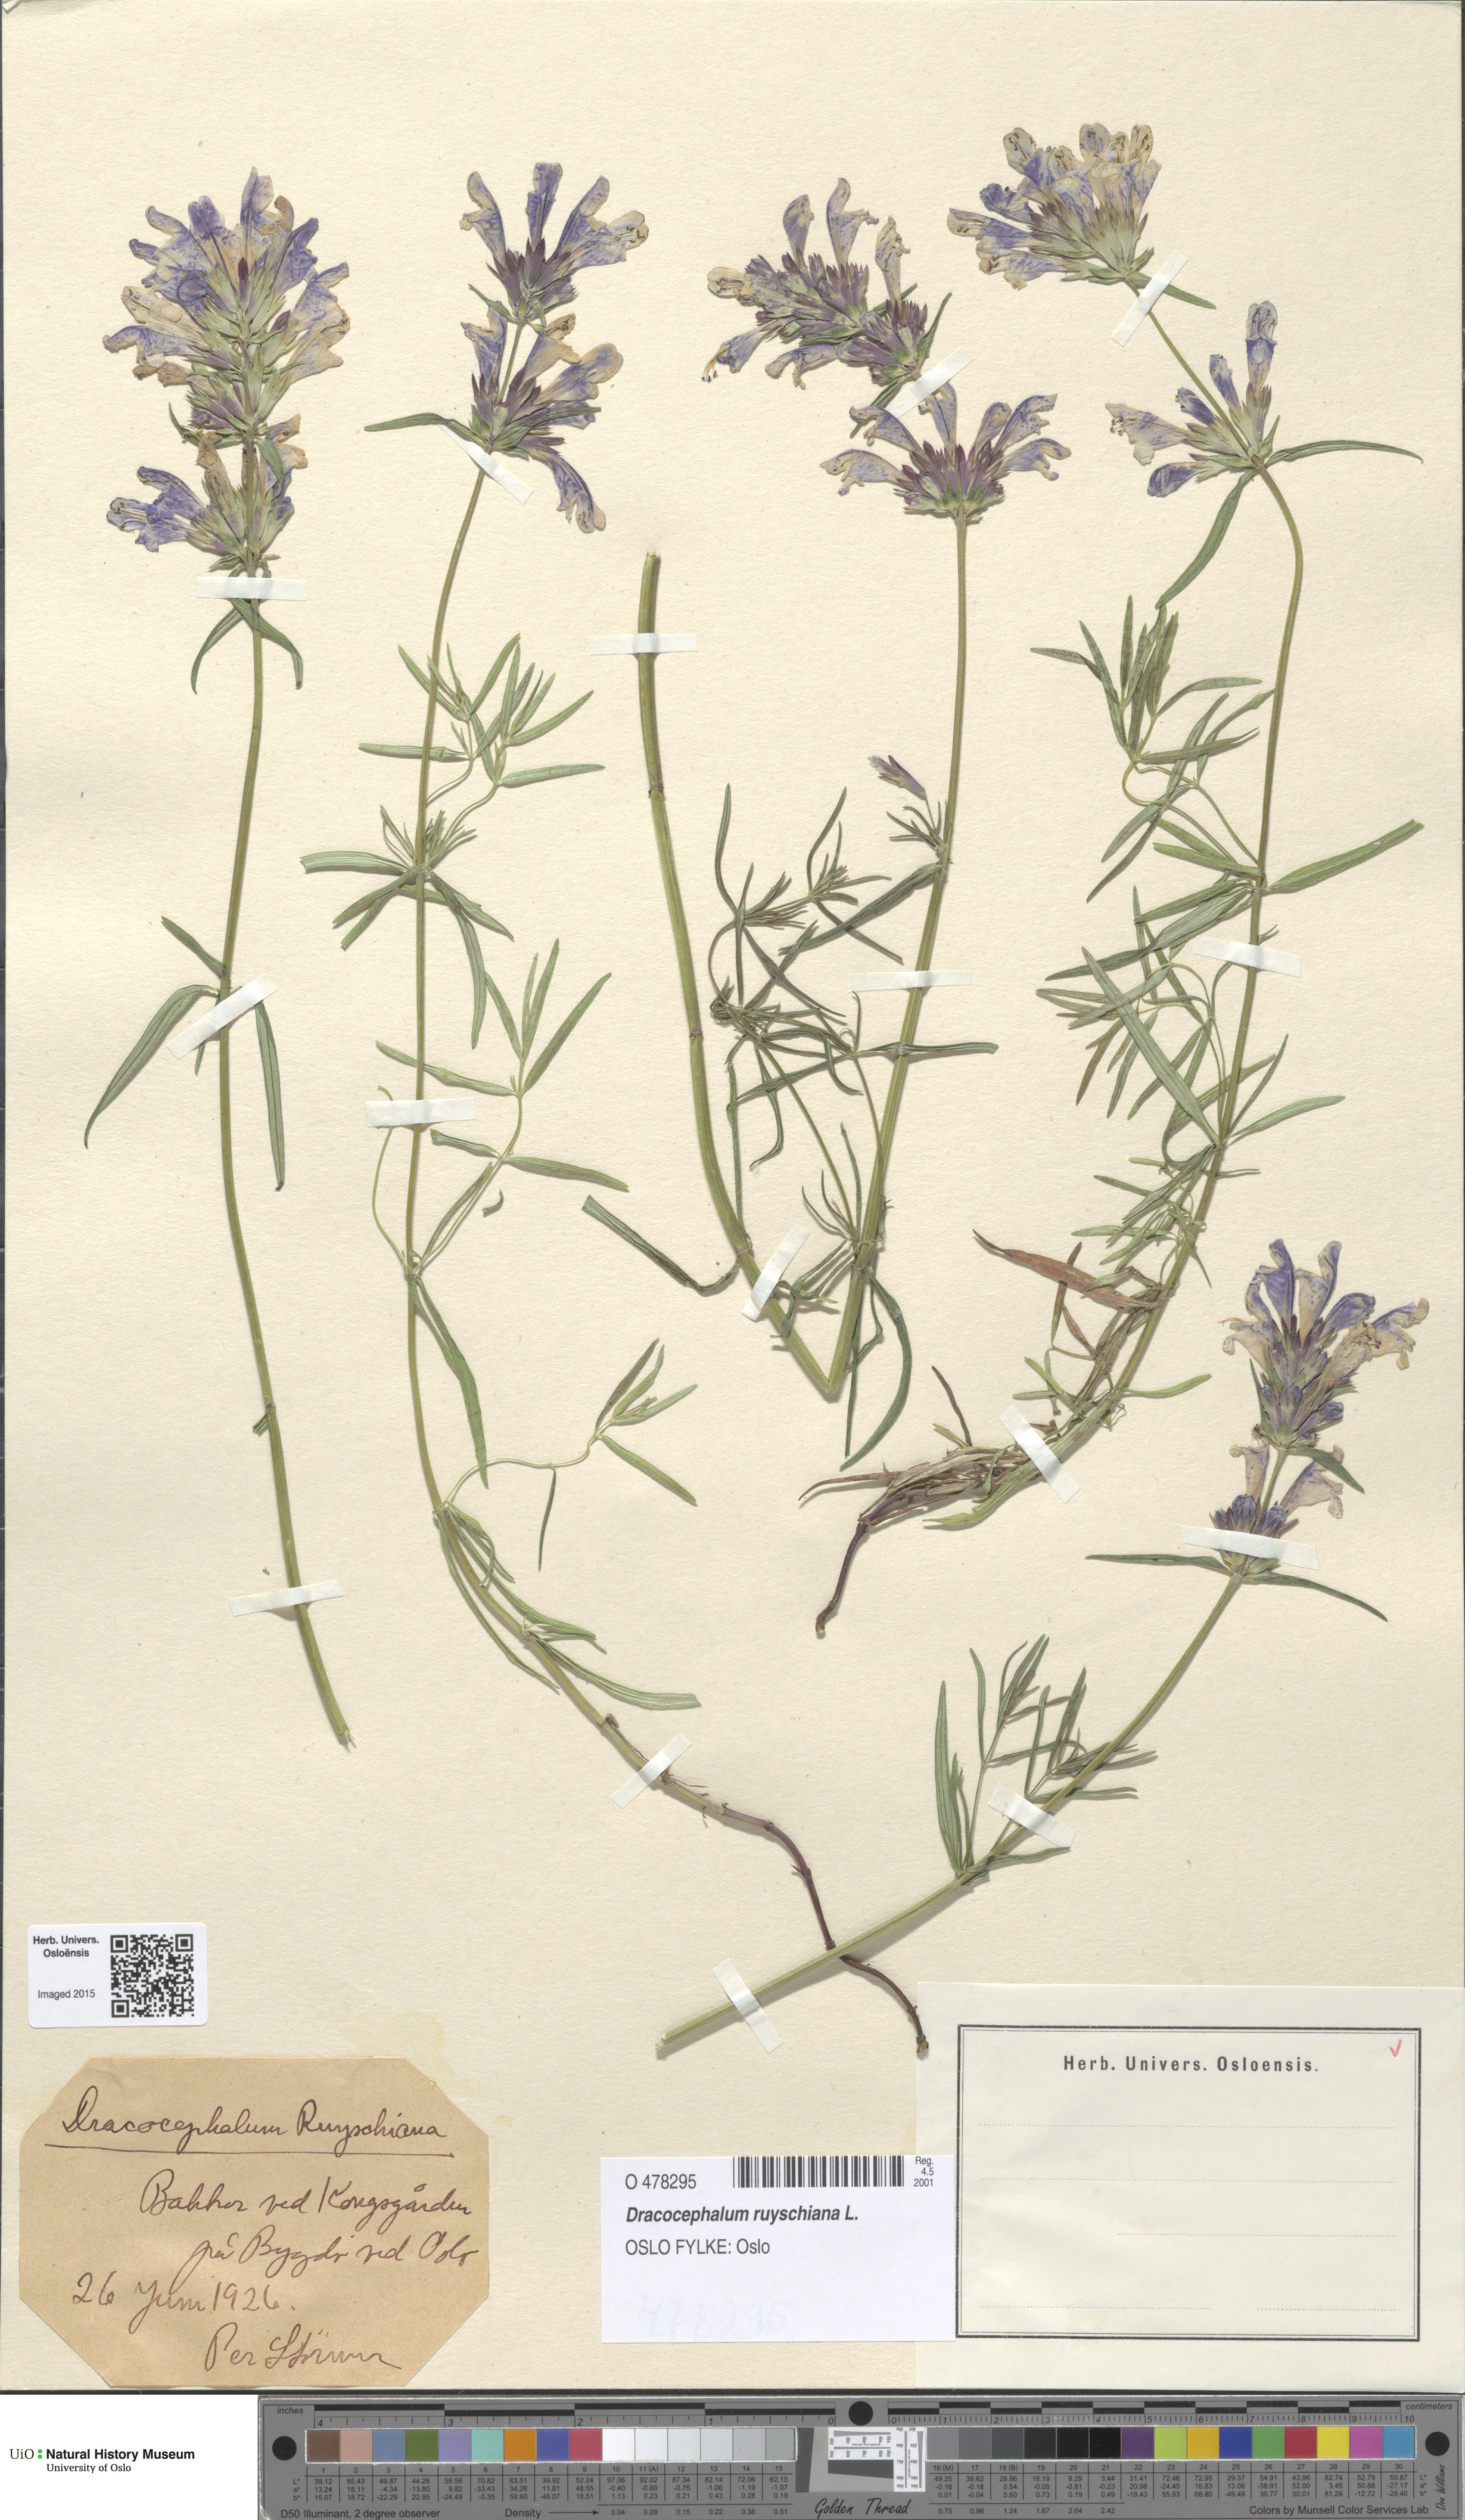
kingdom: Plantae
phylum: Tracheophyta
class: Magnoliopsida
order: Lamiales
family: Lamiaceae
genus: Dracocephalum
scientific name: Dracocephalum ruyschiana
